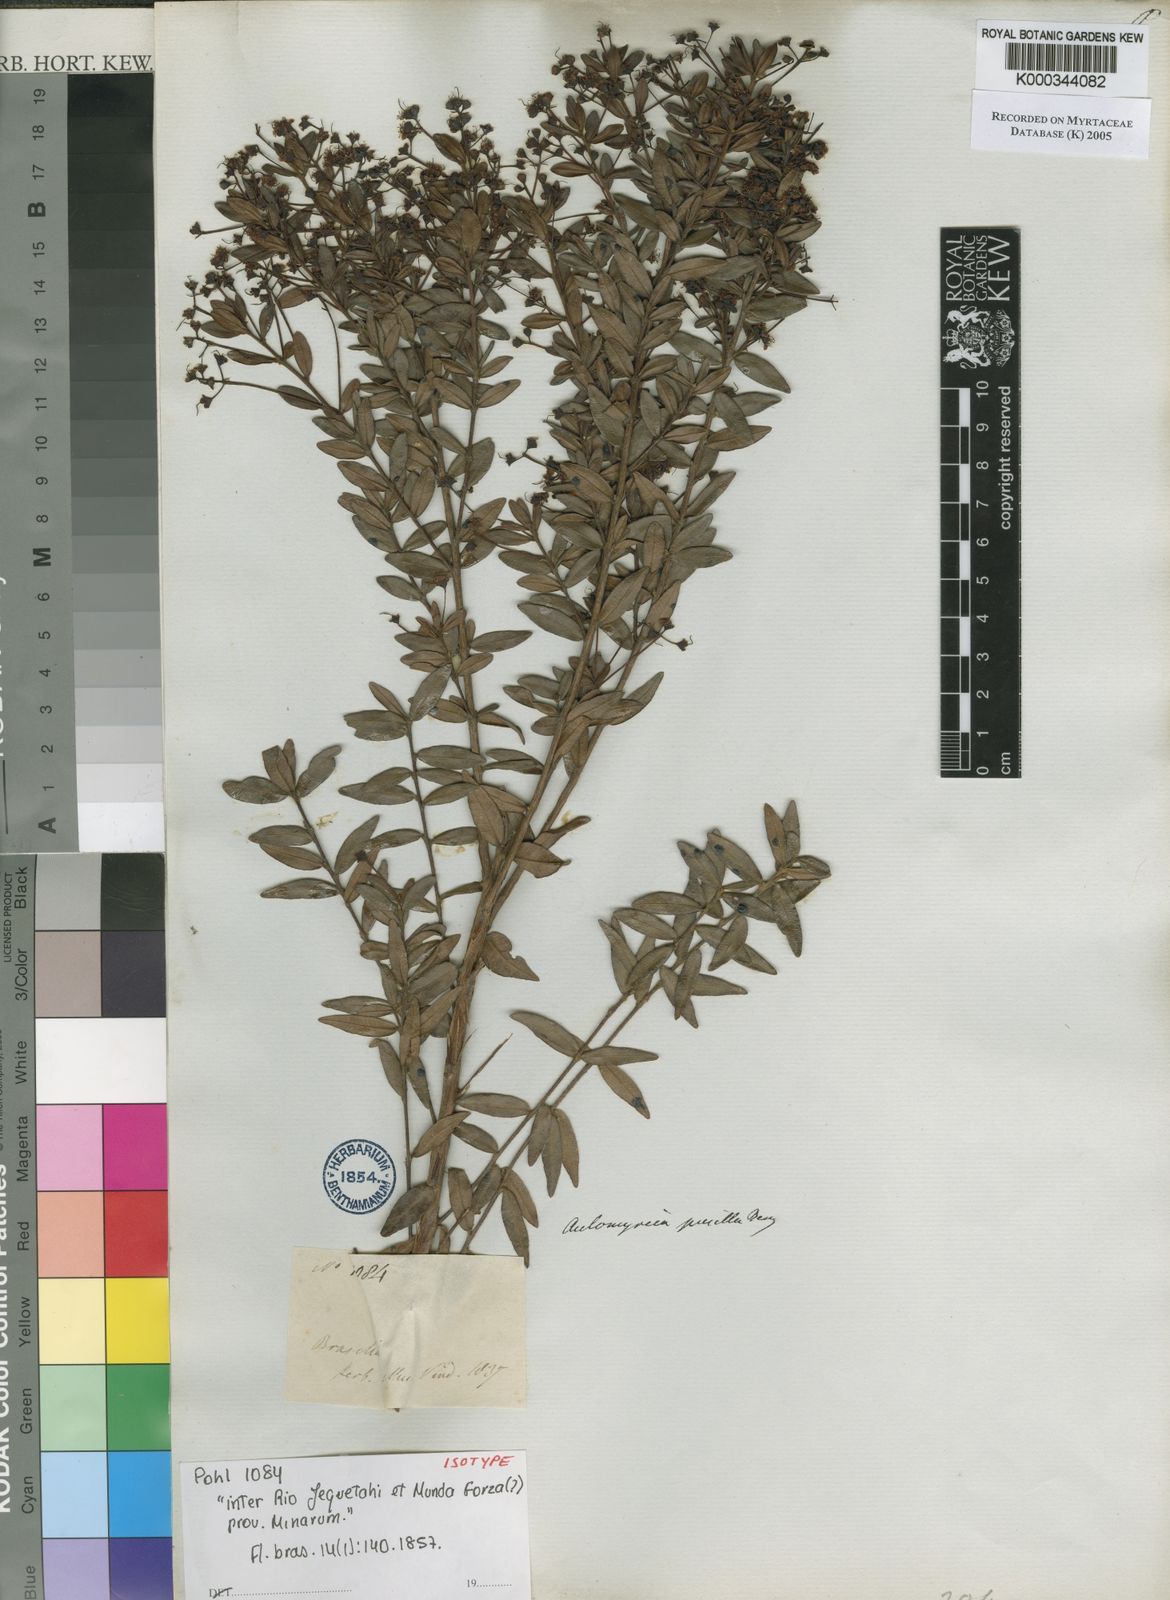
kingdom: Plantae
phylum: Tracheophyta
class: Magnoliopsida
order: Myrtales
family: Myrtaceae
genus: Myrcia
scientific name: Myrcia guianensis
